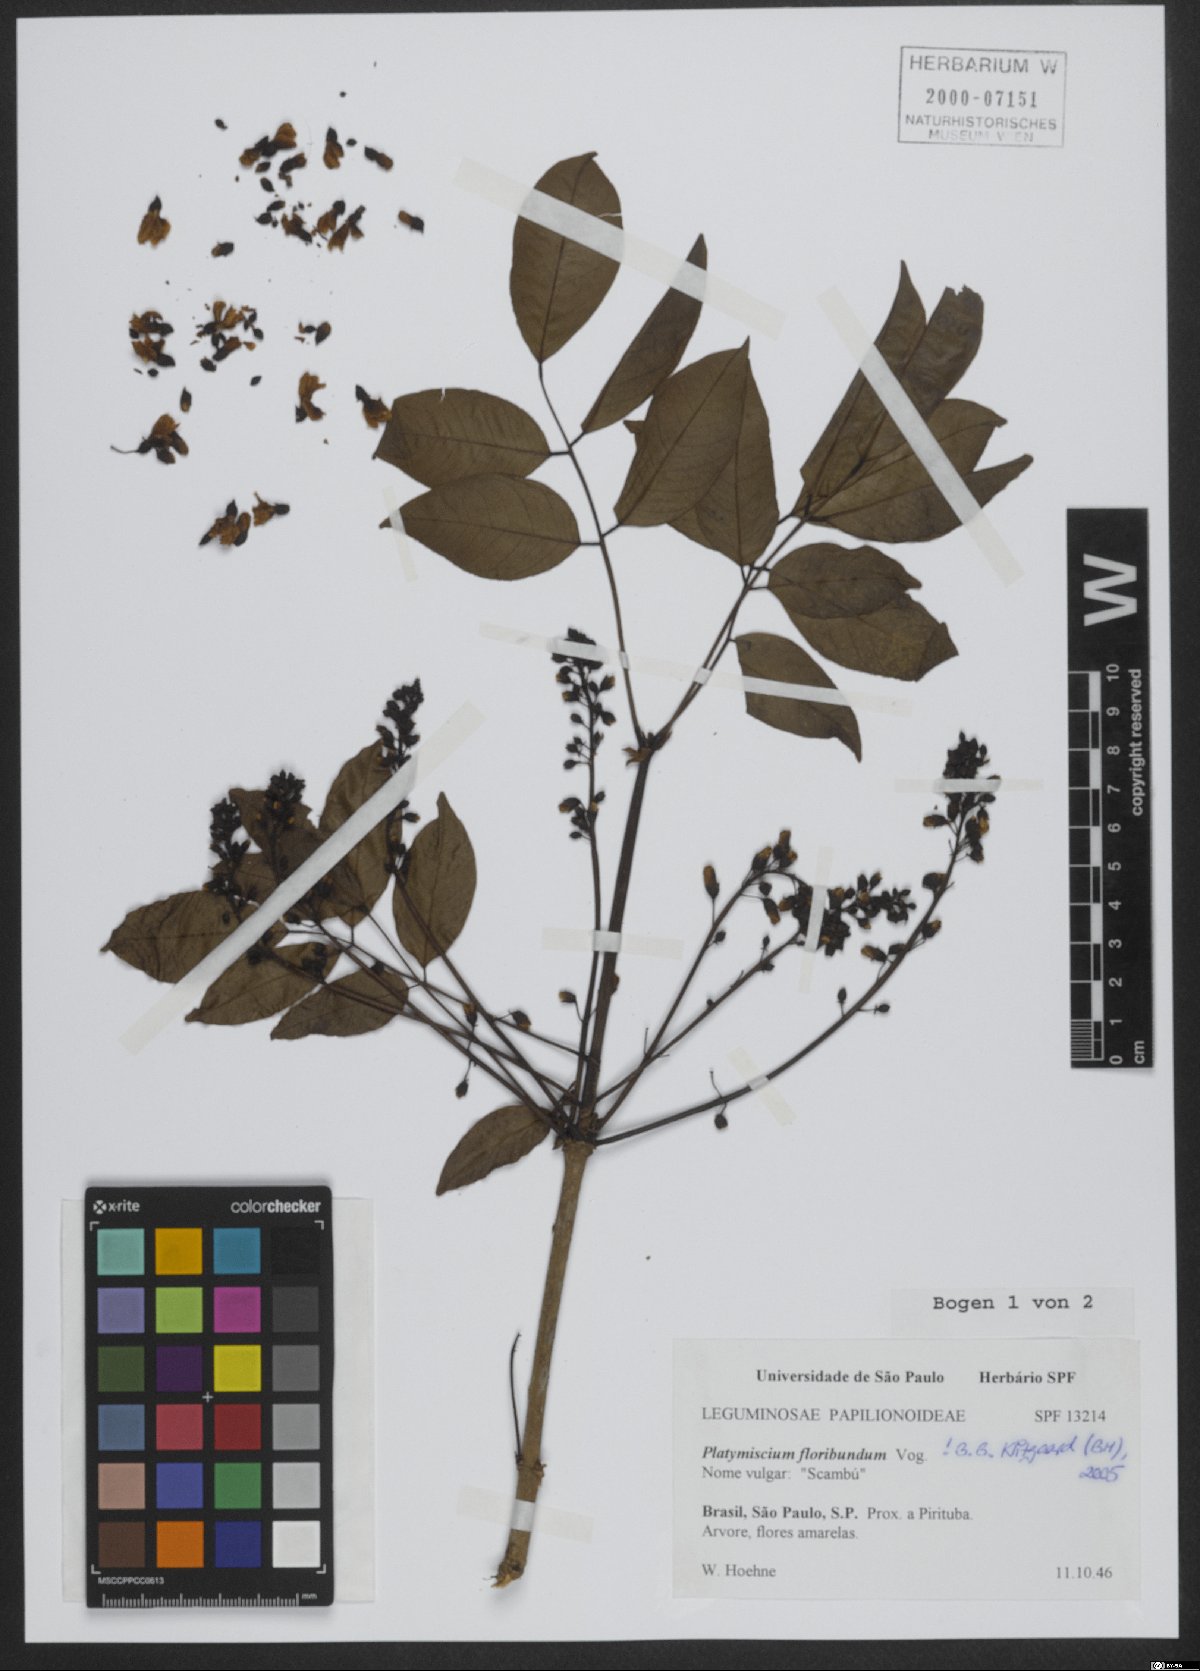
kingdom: Plantae
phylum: Tracheophyta
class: Magnoliopsida
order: Fabales
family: Fabaceae
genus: Platymiscium
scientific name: Platymiscium floribundum
